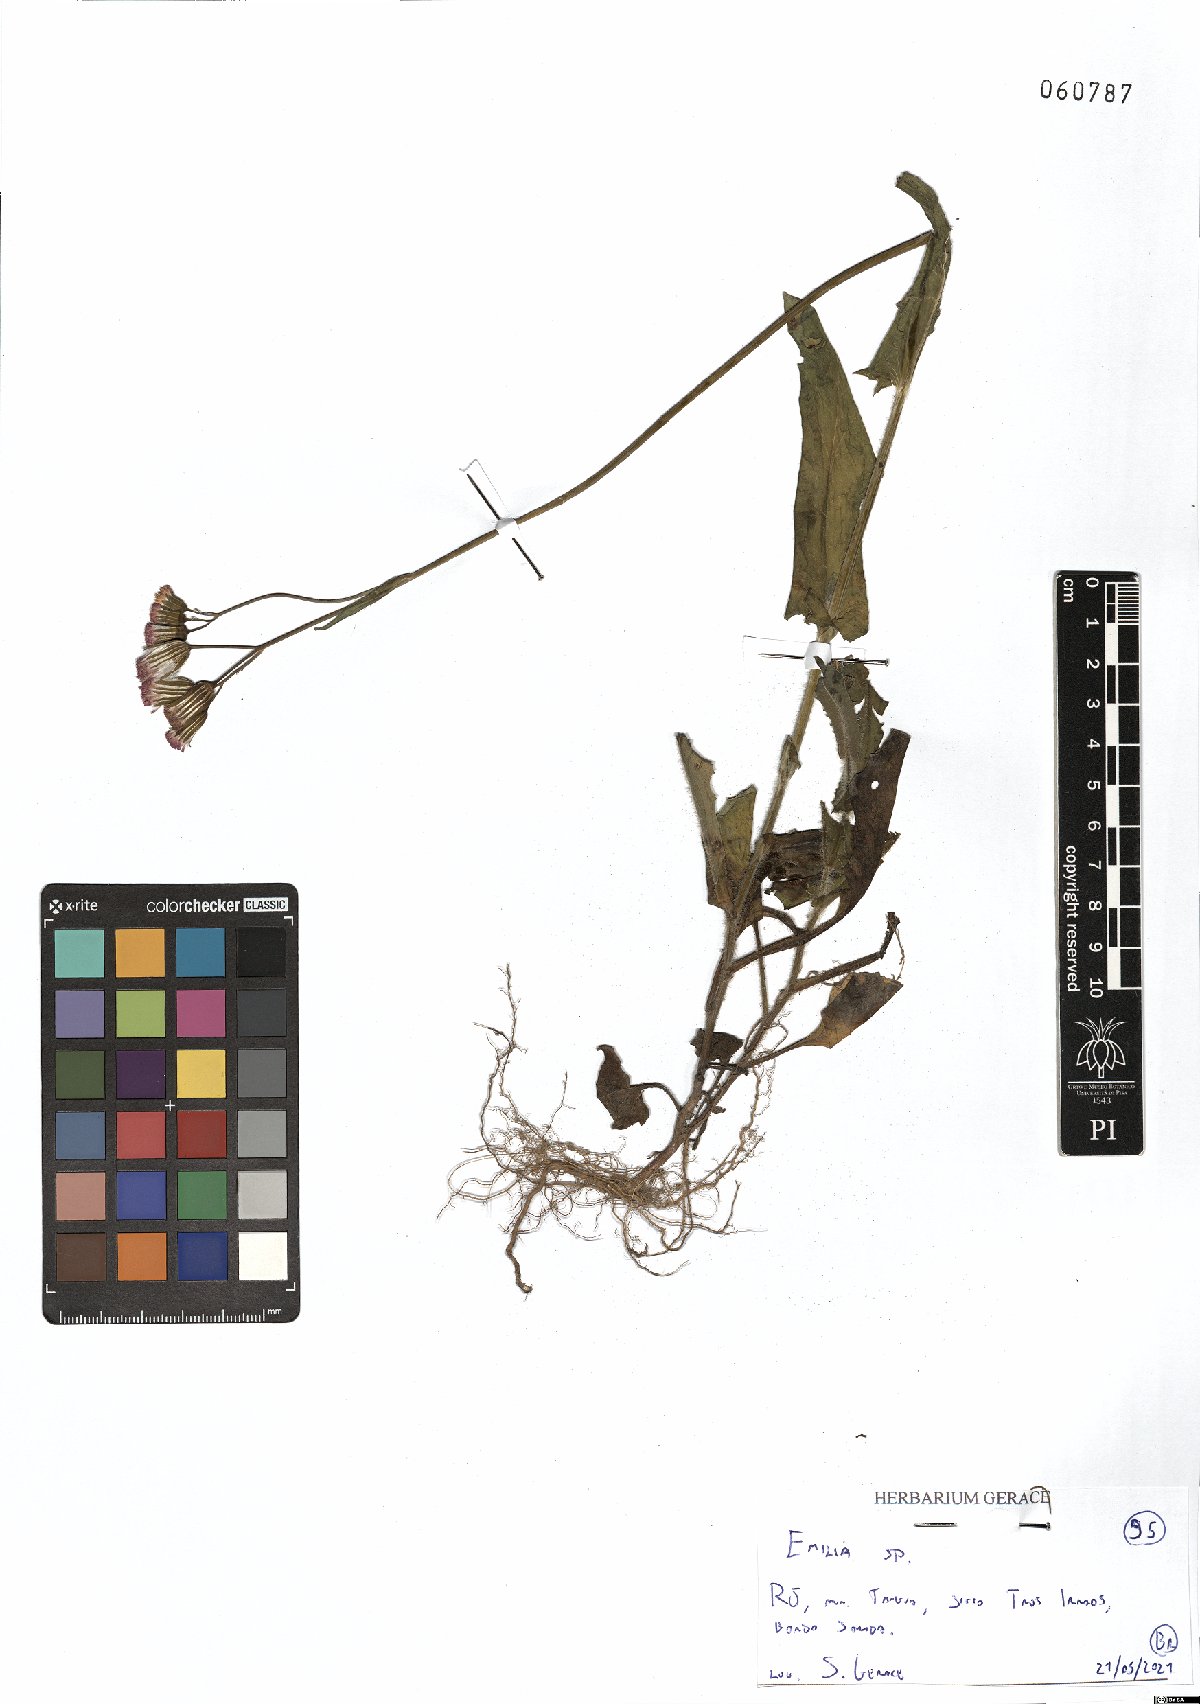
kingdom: Plantae
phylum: Tracheophyta
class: Magnoliopsida
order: Asterales
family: Asteraceae
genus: Emilia
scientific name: Emilia
